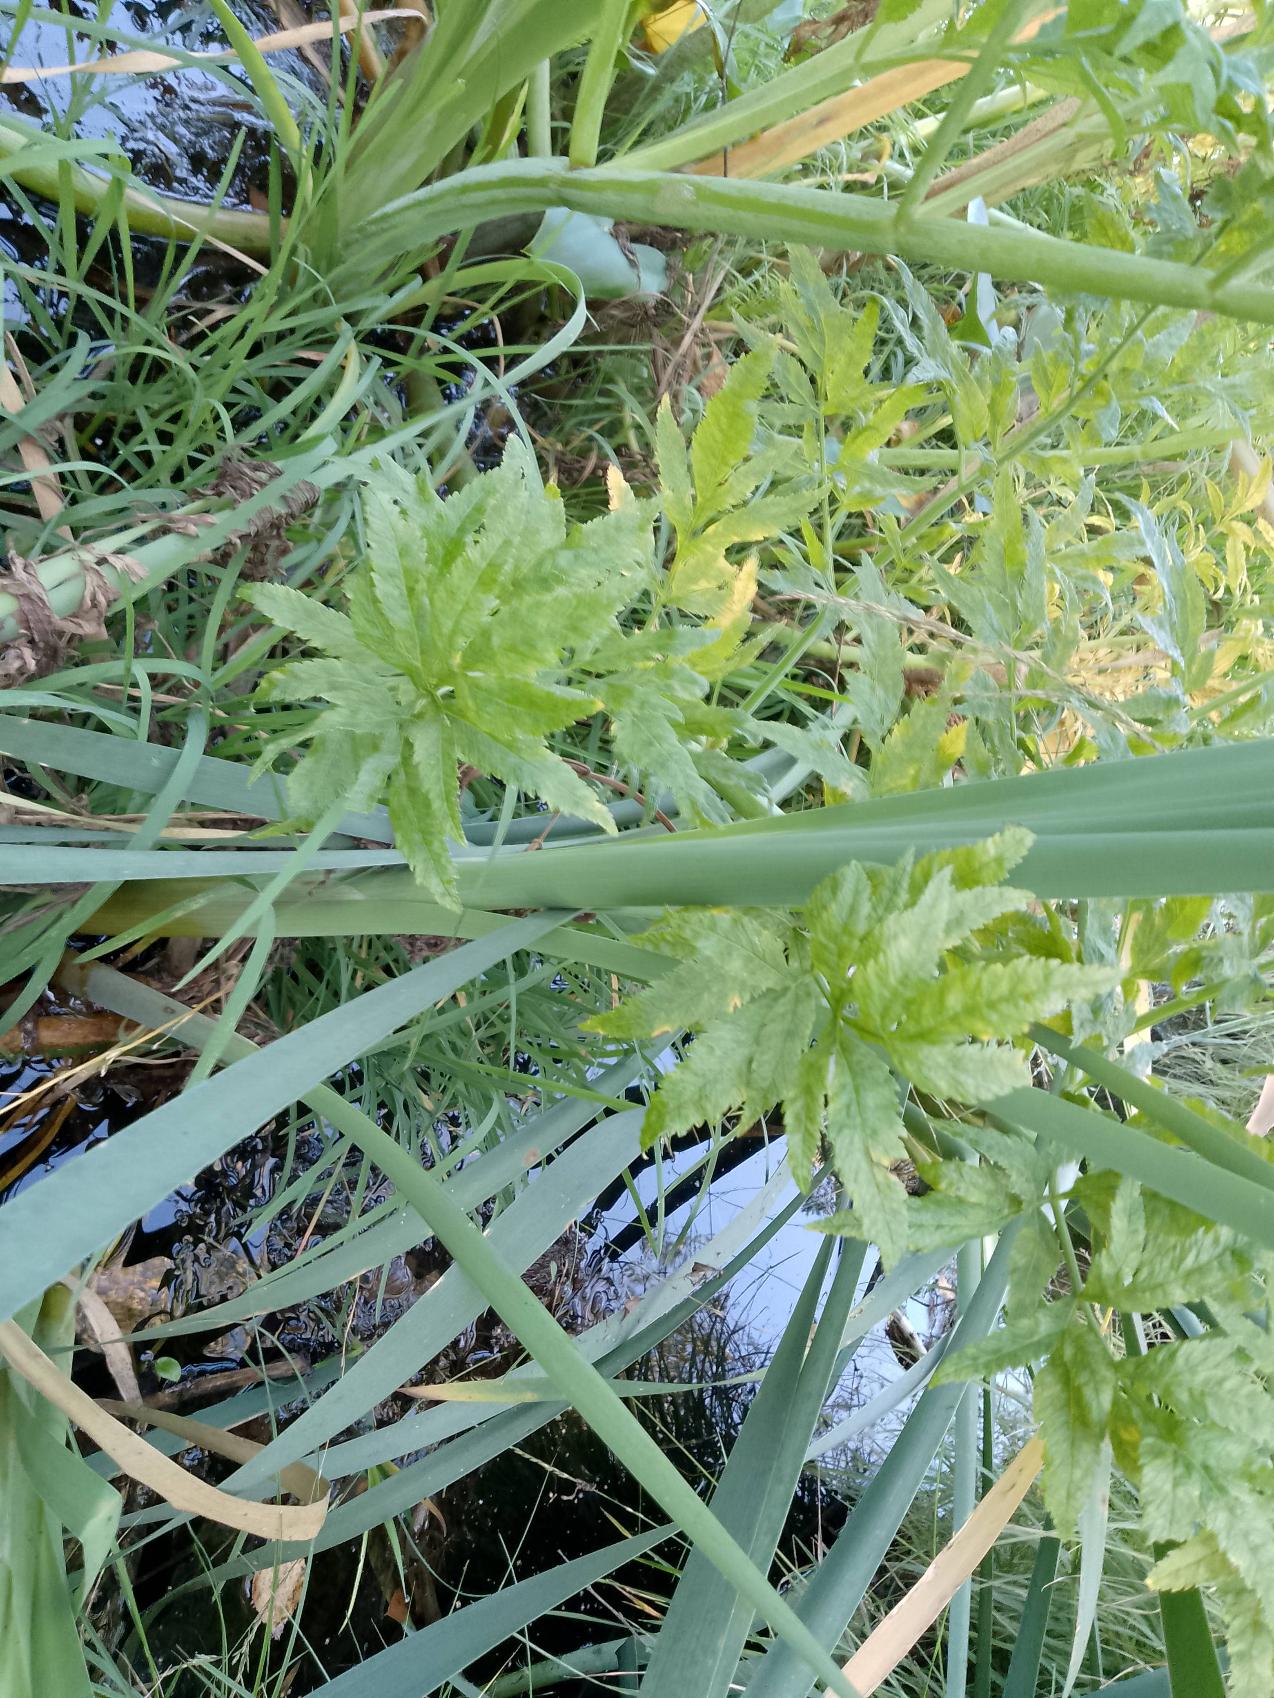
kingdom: Plantae
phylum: Tracheophyta
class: Magnoliopsida
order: Apiales
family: Apiaceae
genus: Cicuta
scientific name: Cicuta virosa
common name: Gifttyde
